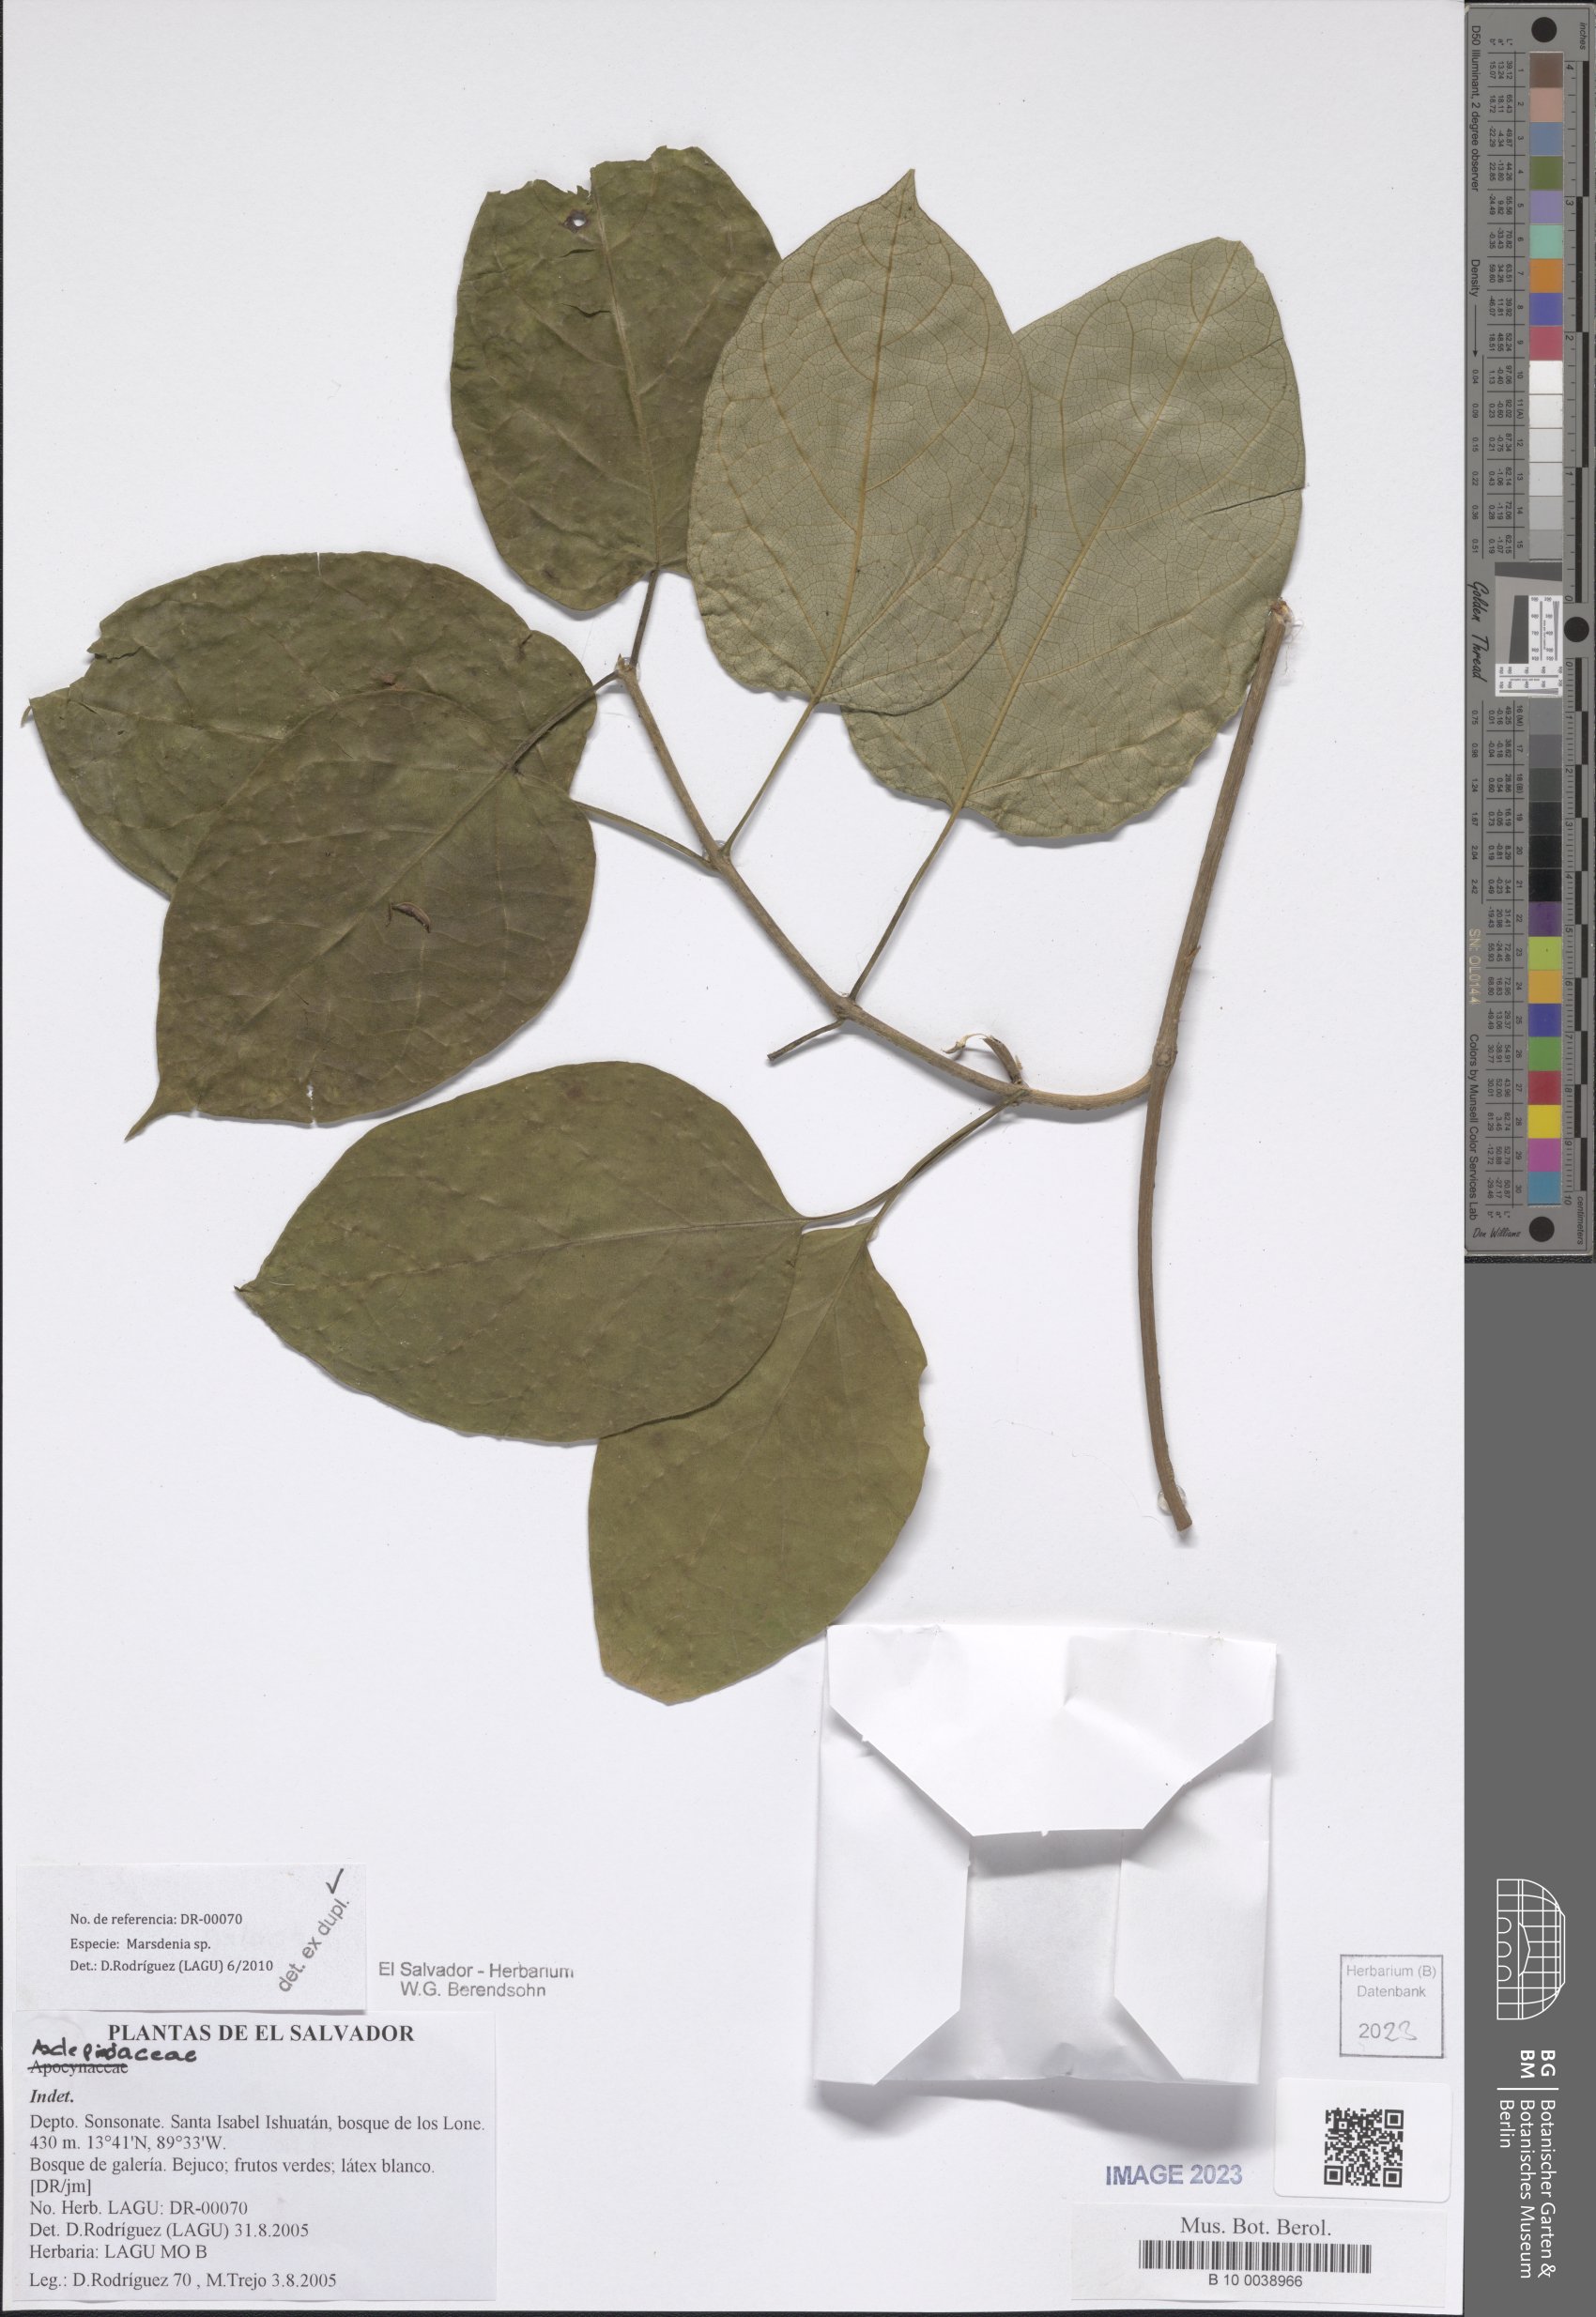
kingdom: Plantae
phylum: Tracheophyta
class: Magnoliopsida
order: Gentianales
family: Apocynaceae
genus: Marsdenia
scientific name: Marsdenia
